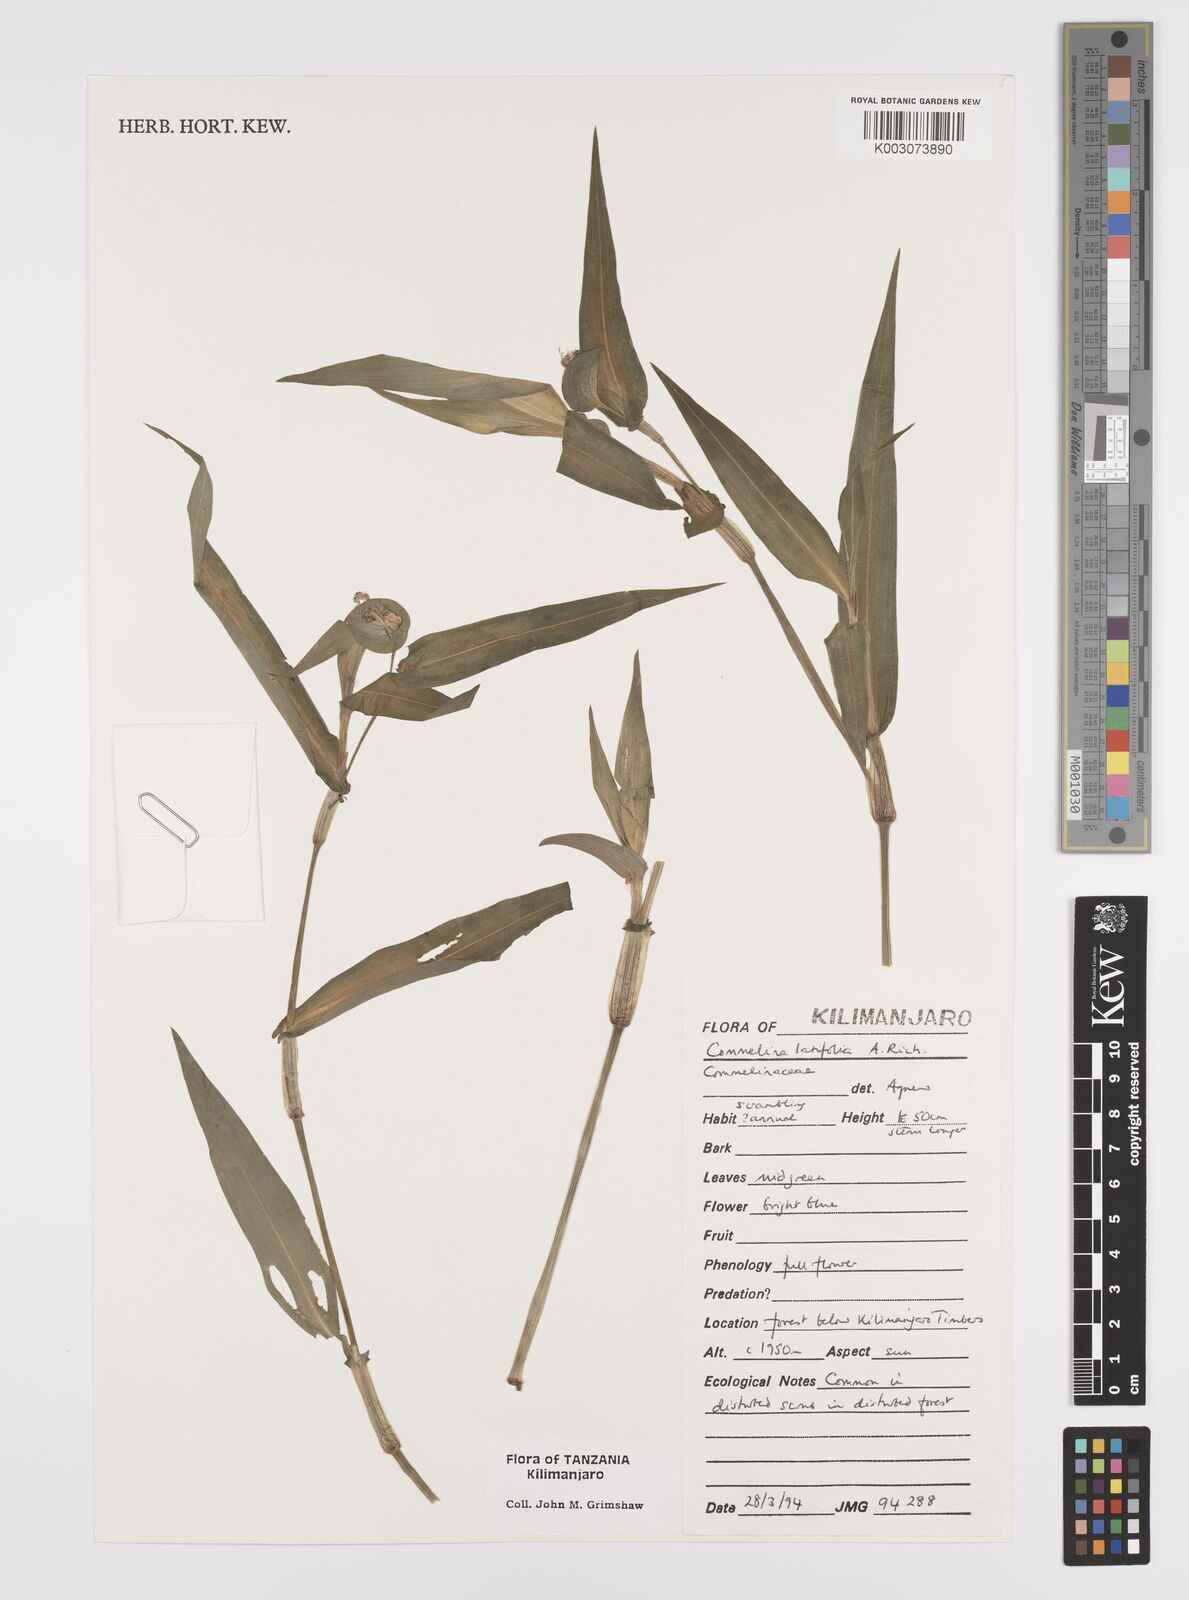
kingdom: Plantae
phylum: Tracheophyta
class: Liliopsida
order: Commelinales
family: Commelinaceae
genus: Commelina
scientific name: Commelina latifolia
